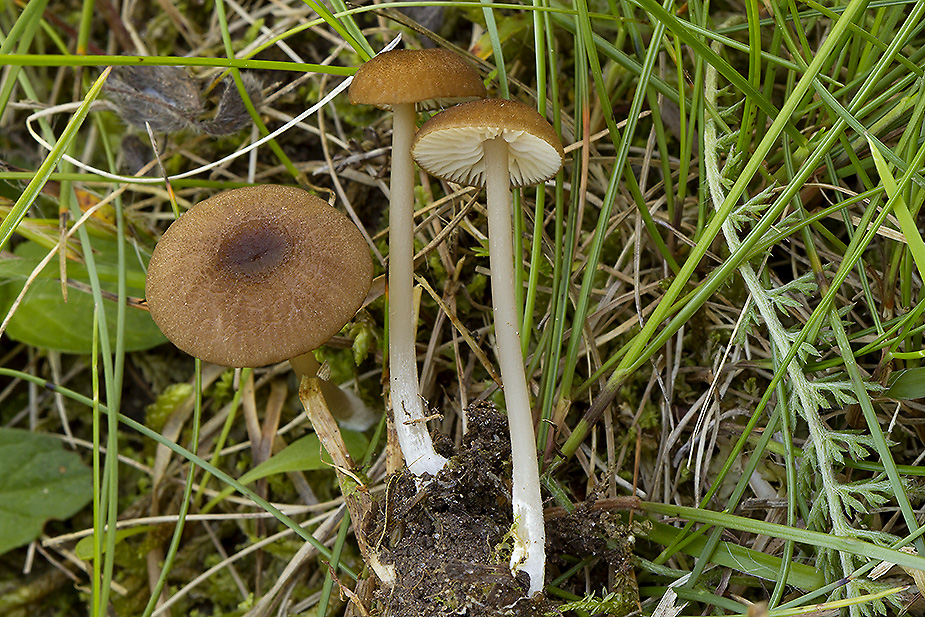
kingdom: Fungi
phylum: Basidiomycota
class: Agaricomycetes
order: Agaricales
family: Entolomataceae
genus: Entoloma
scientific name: Entoloma longistriatum
